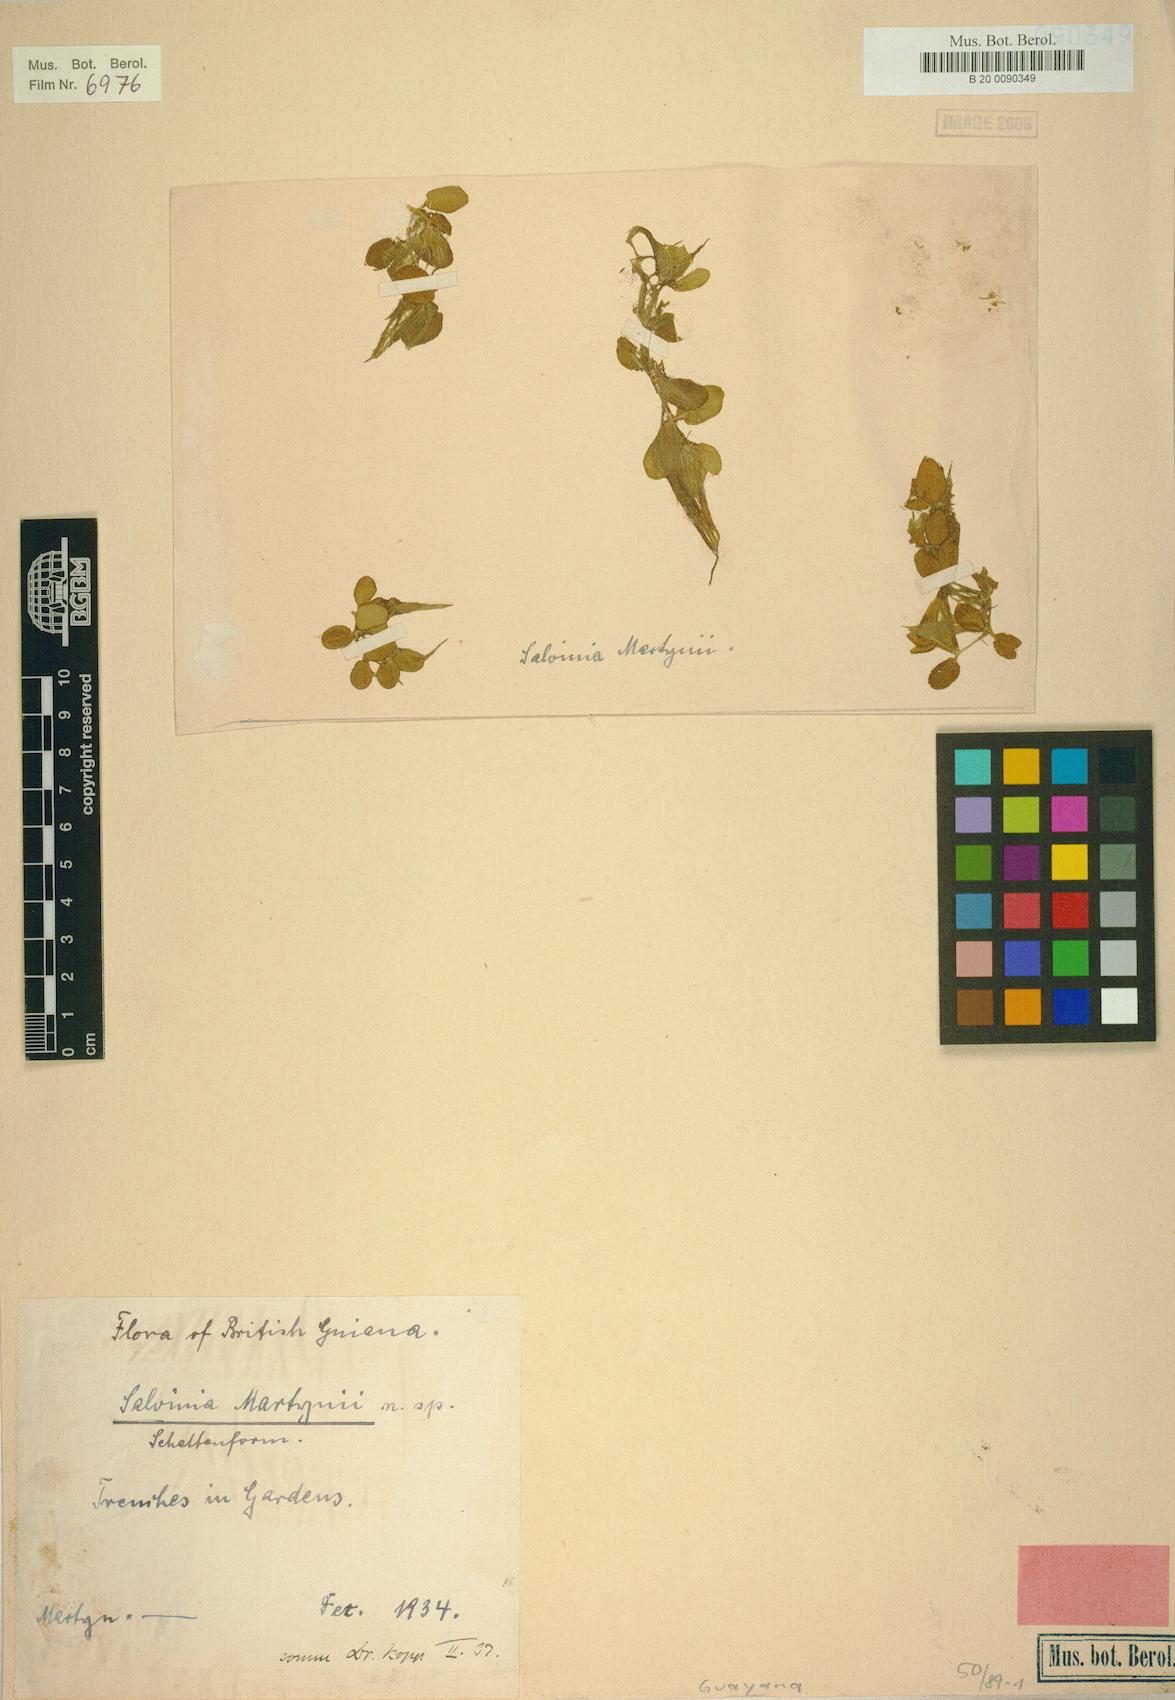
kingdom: Plantae
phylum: Tracheophyta
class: Polypodiopsida
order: Salviniales
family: Salviniaceae
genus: Salvinia
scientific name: Salvinia martynii
